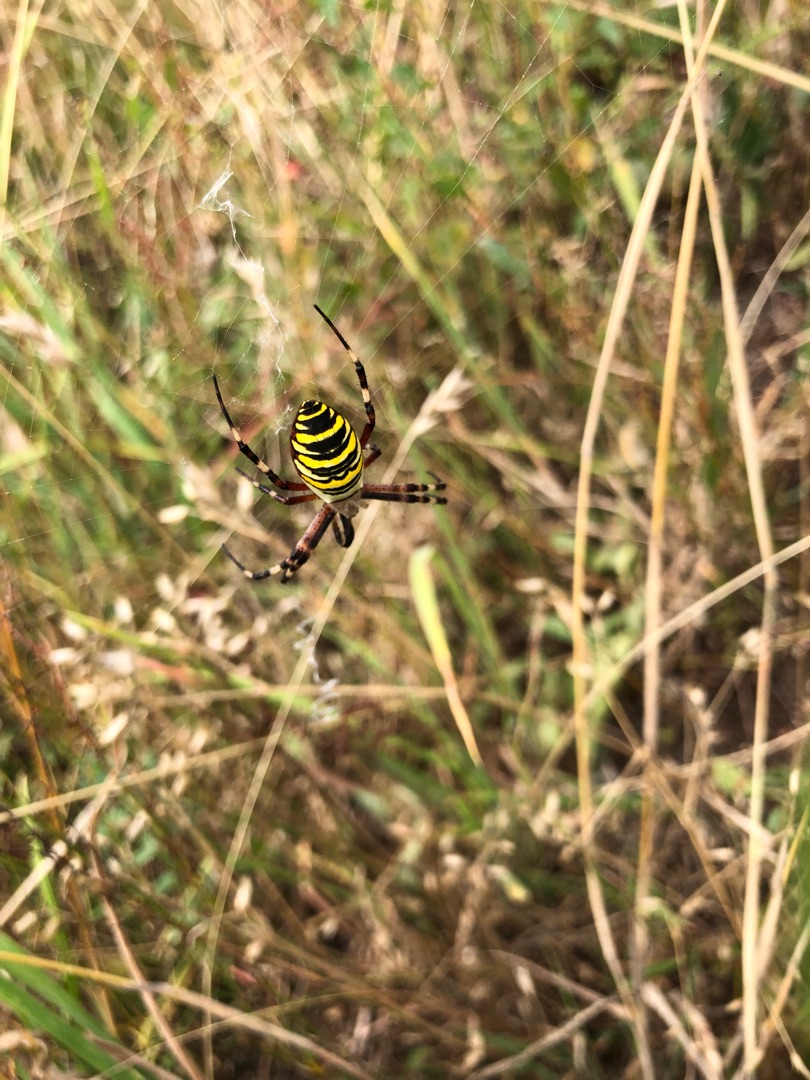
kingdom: Animalia
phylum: Arthropoda
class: Arachnida
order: Araneae
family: Araneidae
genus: Argiope
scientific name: Argiope bruennichi
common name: Hvepseedderkop
